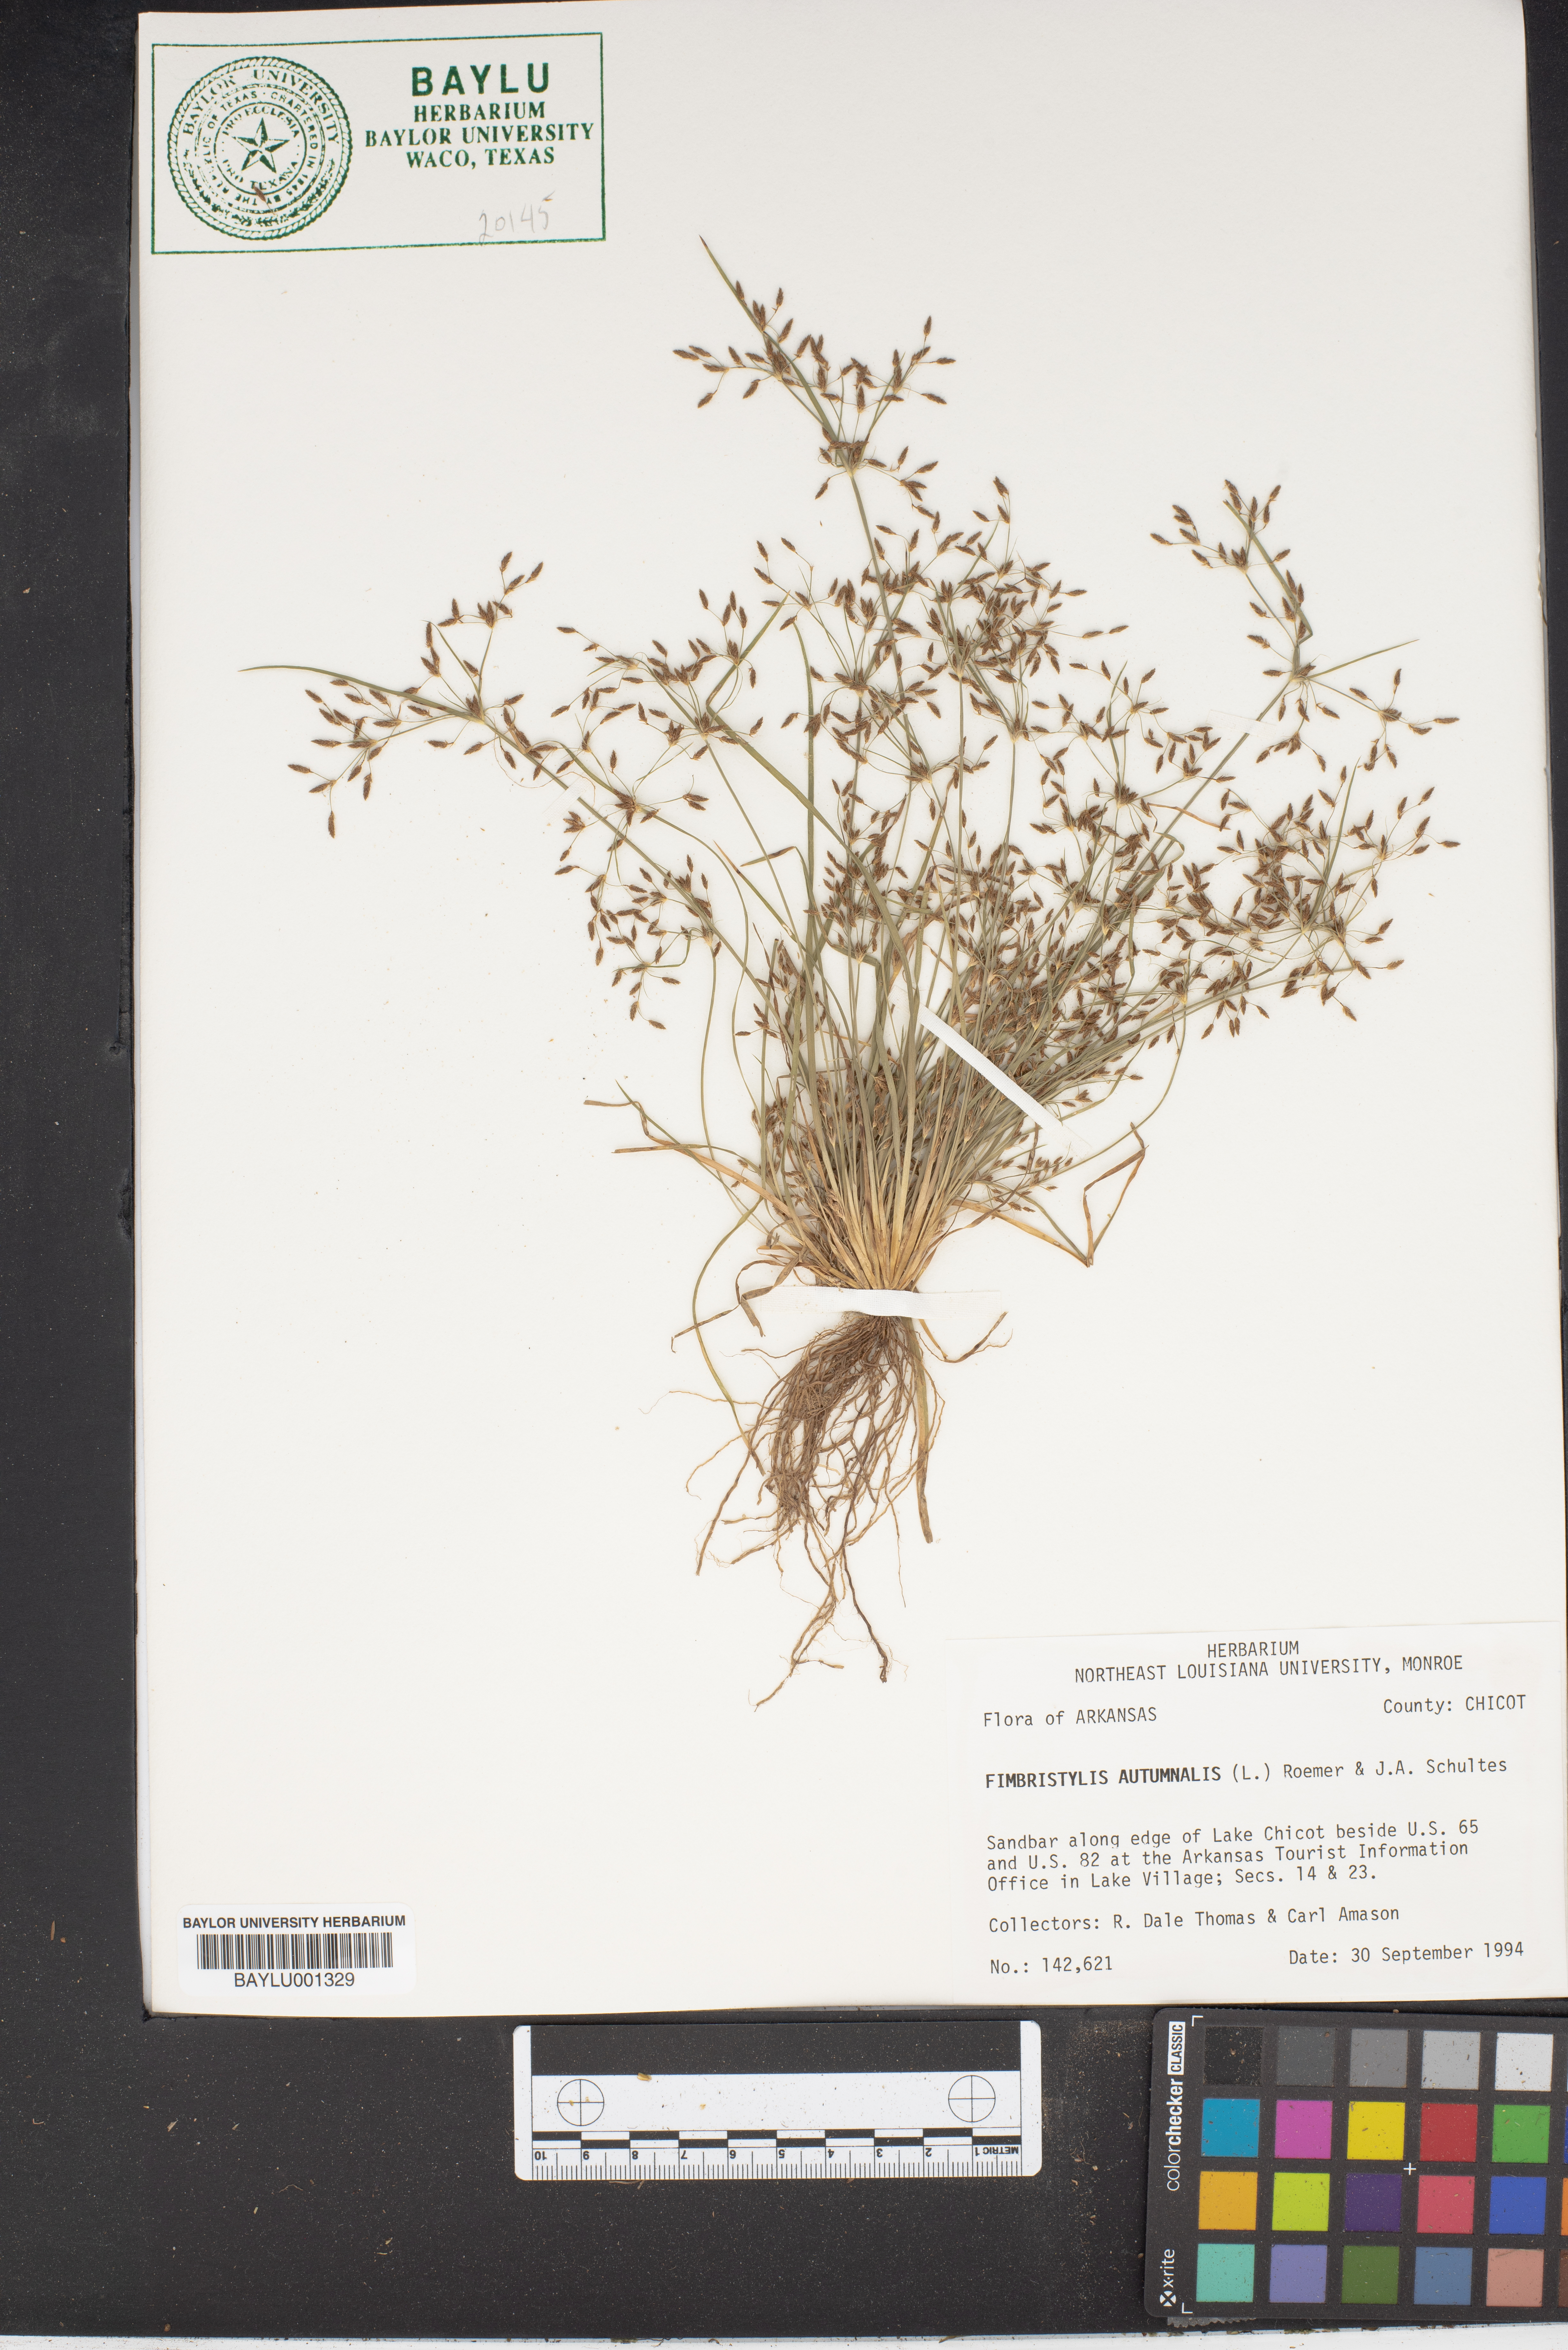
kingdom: Plantae
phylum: Tracheophyta
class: Liliopsida
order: Poales
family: Cyperaceae
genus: Fimbristylis
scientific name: Fimbristylis autumnalis
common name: Slender fimbristylis
